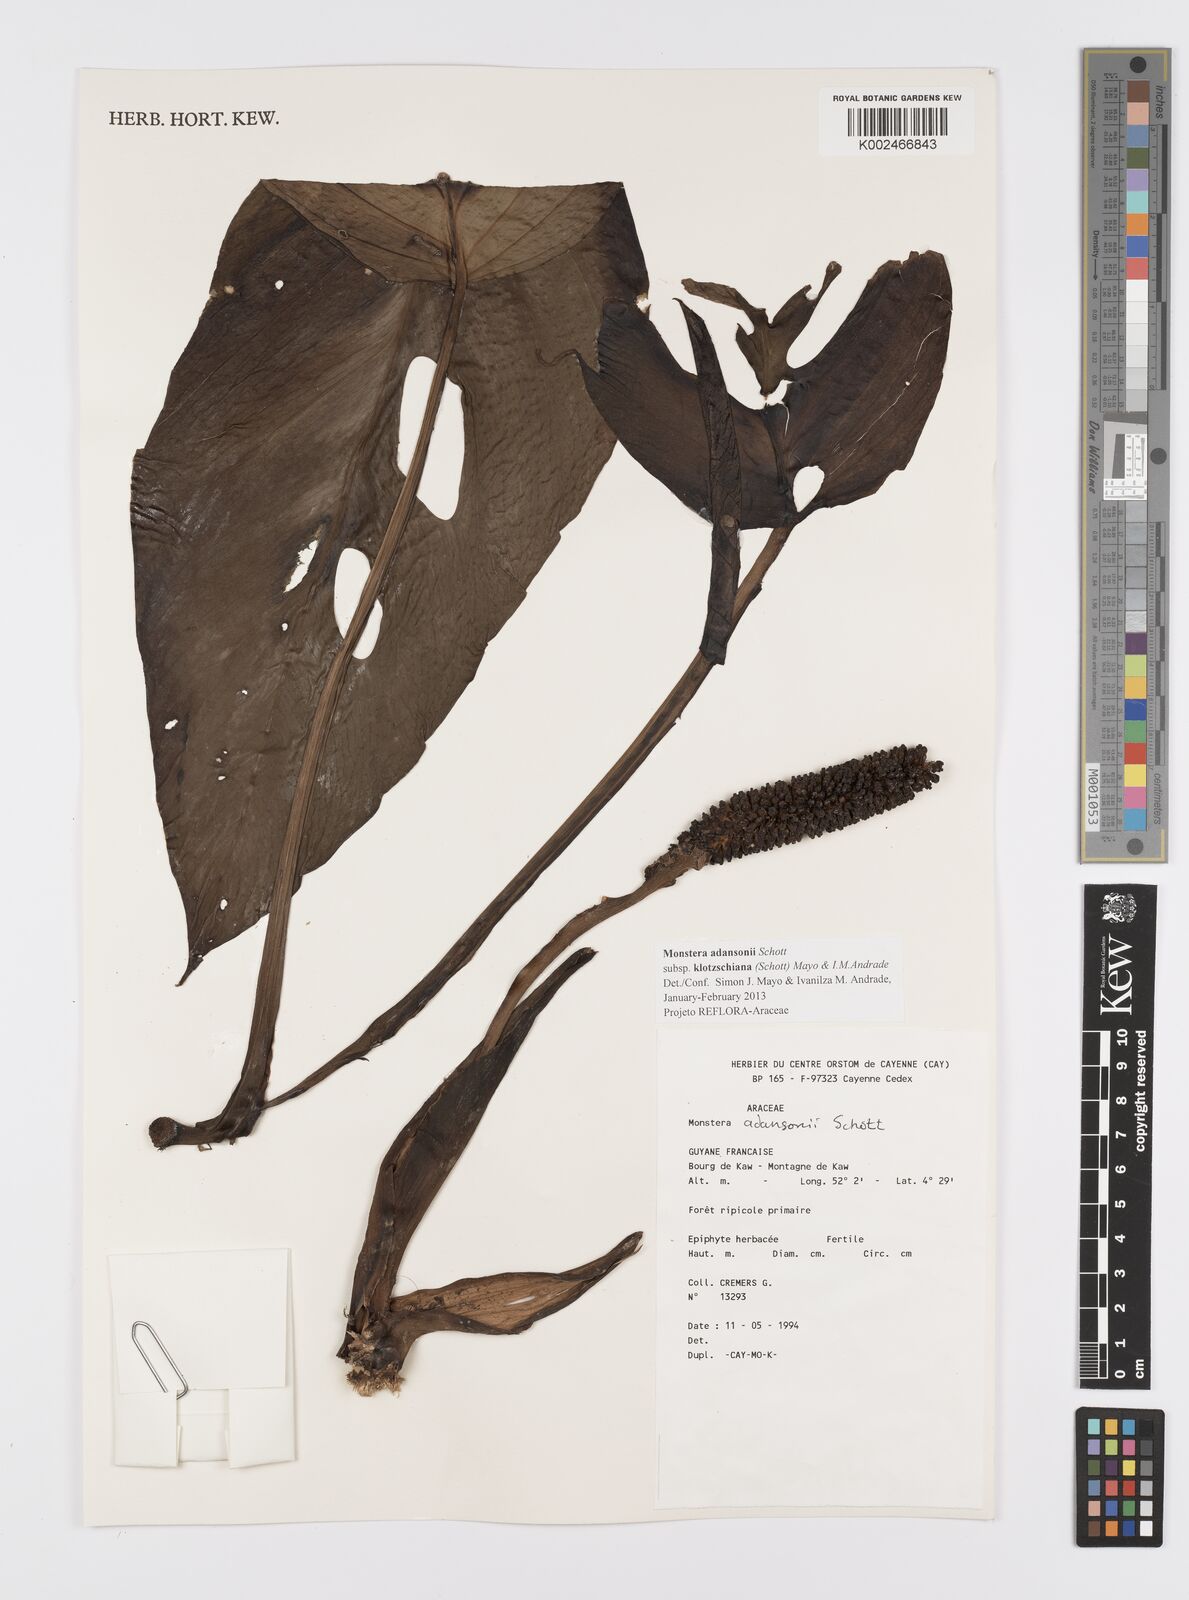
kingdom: Plantae
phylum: Tracheophyta
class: Liliopsida
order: Alismatales
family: Araceae
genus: Monstera
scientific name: Monstera adansonii
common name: Tarovine
